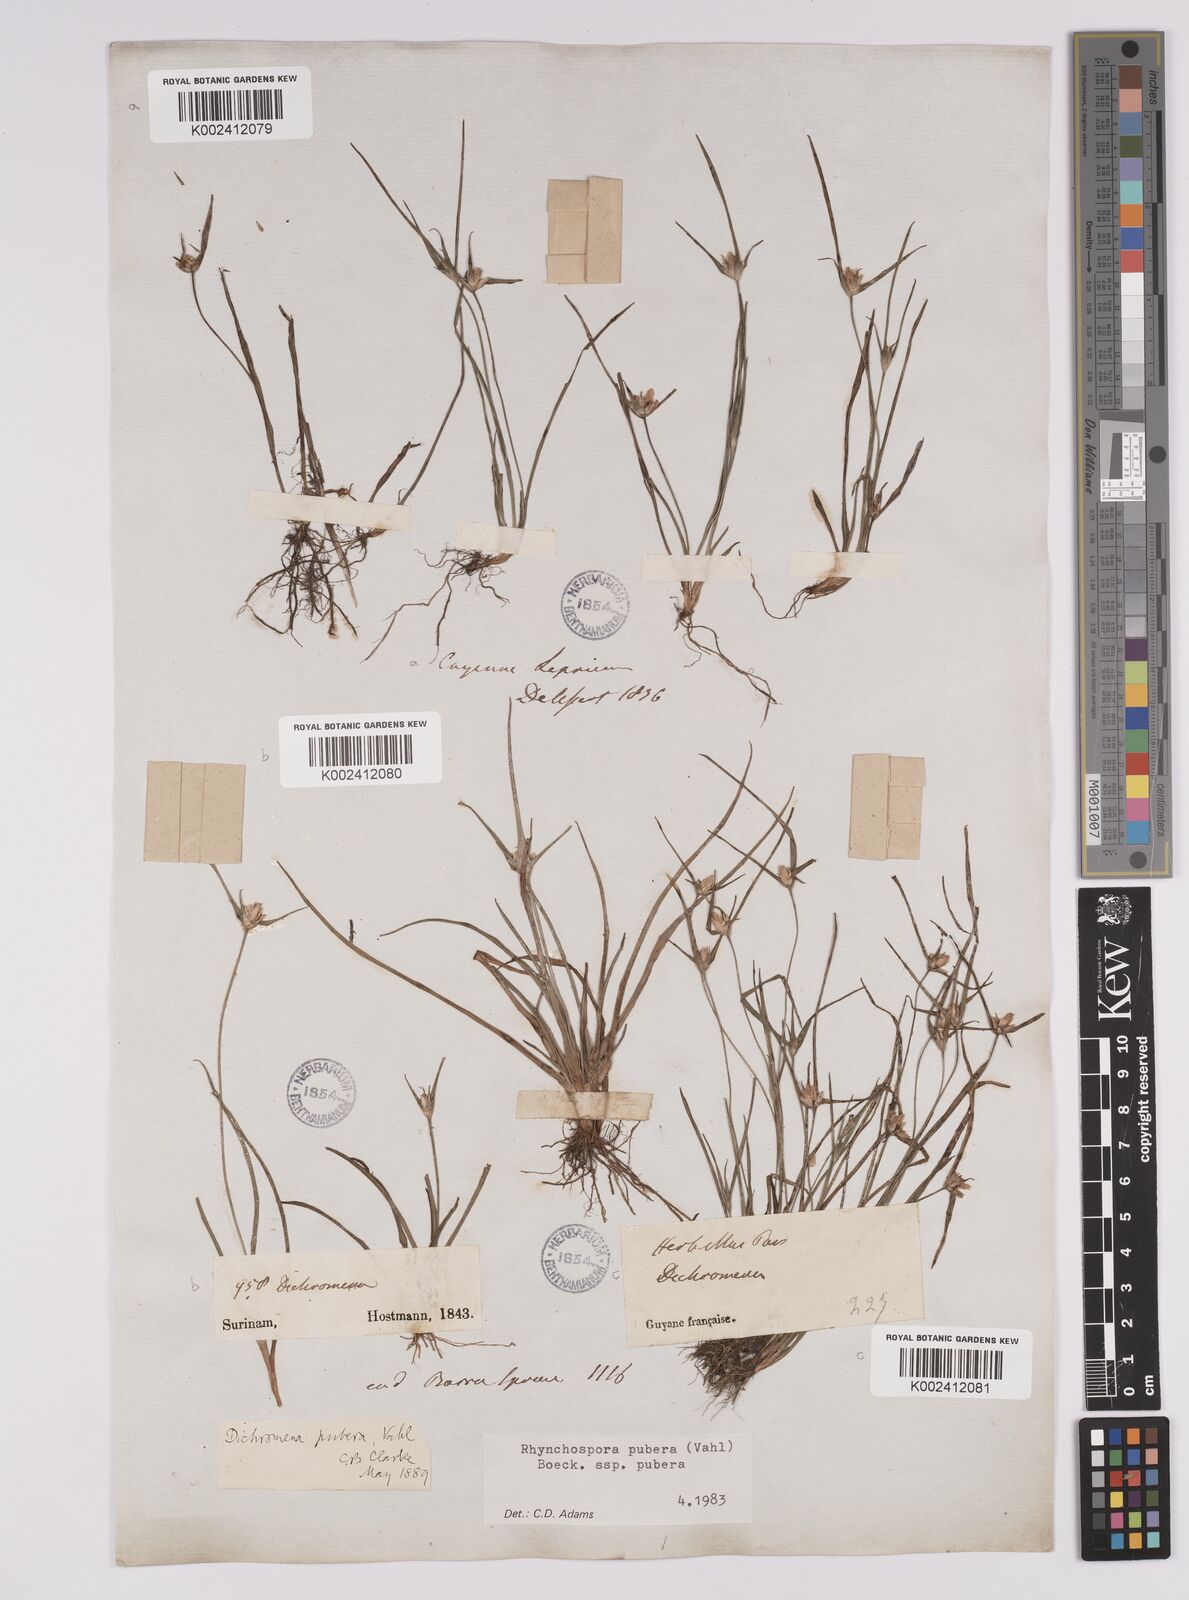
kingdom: Plantae
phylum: Tracheophyta
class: Liliopsida
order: Poales
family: Cyperaceae
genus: Rhynchospora
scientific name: Rhynchospora pubera
